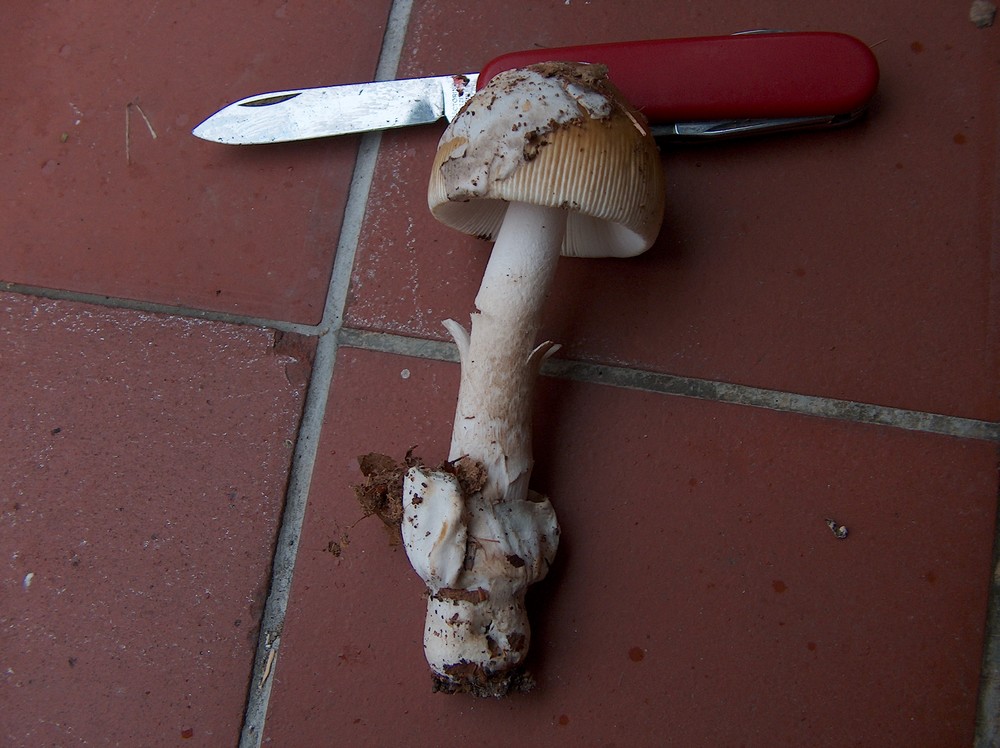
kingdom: Fungi
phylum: Basidiomycota
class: Agaricomycetes
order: Agaricales
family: Amanitaceae
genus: Amanita
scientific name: Amanita submembranacea
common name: gråspættet kam-fluesvamp
